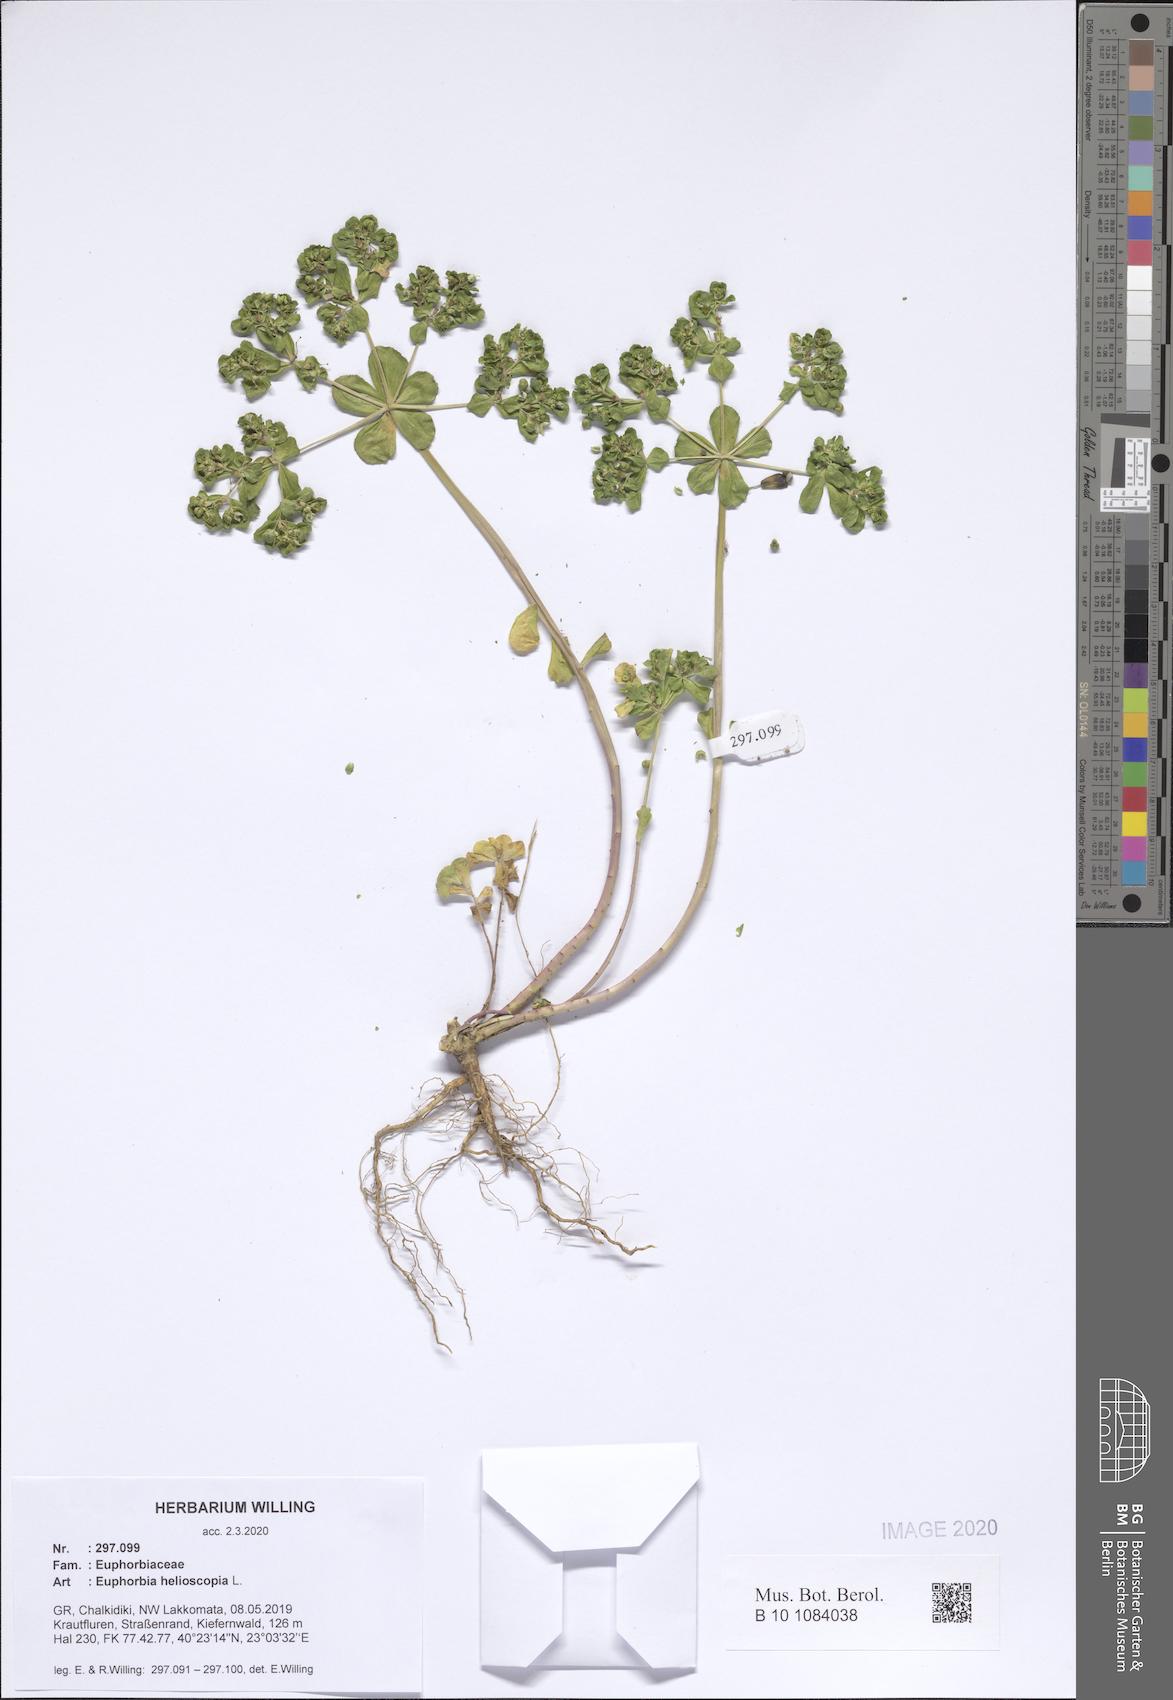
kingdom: Plantae
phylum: Tracheophyta
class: Magnoliopsida
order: Malpighiales
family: Euphorbiaceae
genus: Euphorbia
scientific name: Euphorbia helioscopia
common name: Sun spurge
